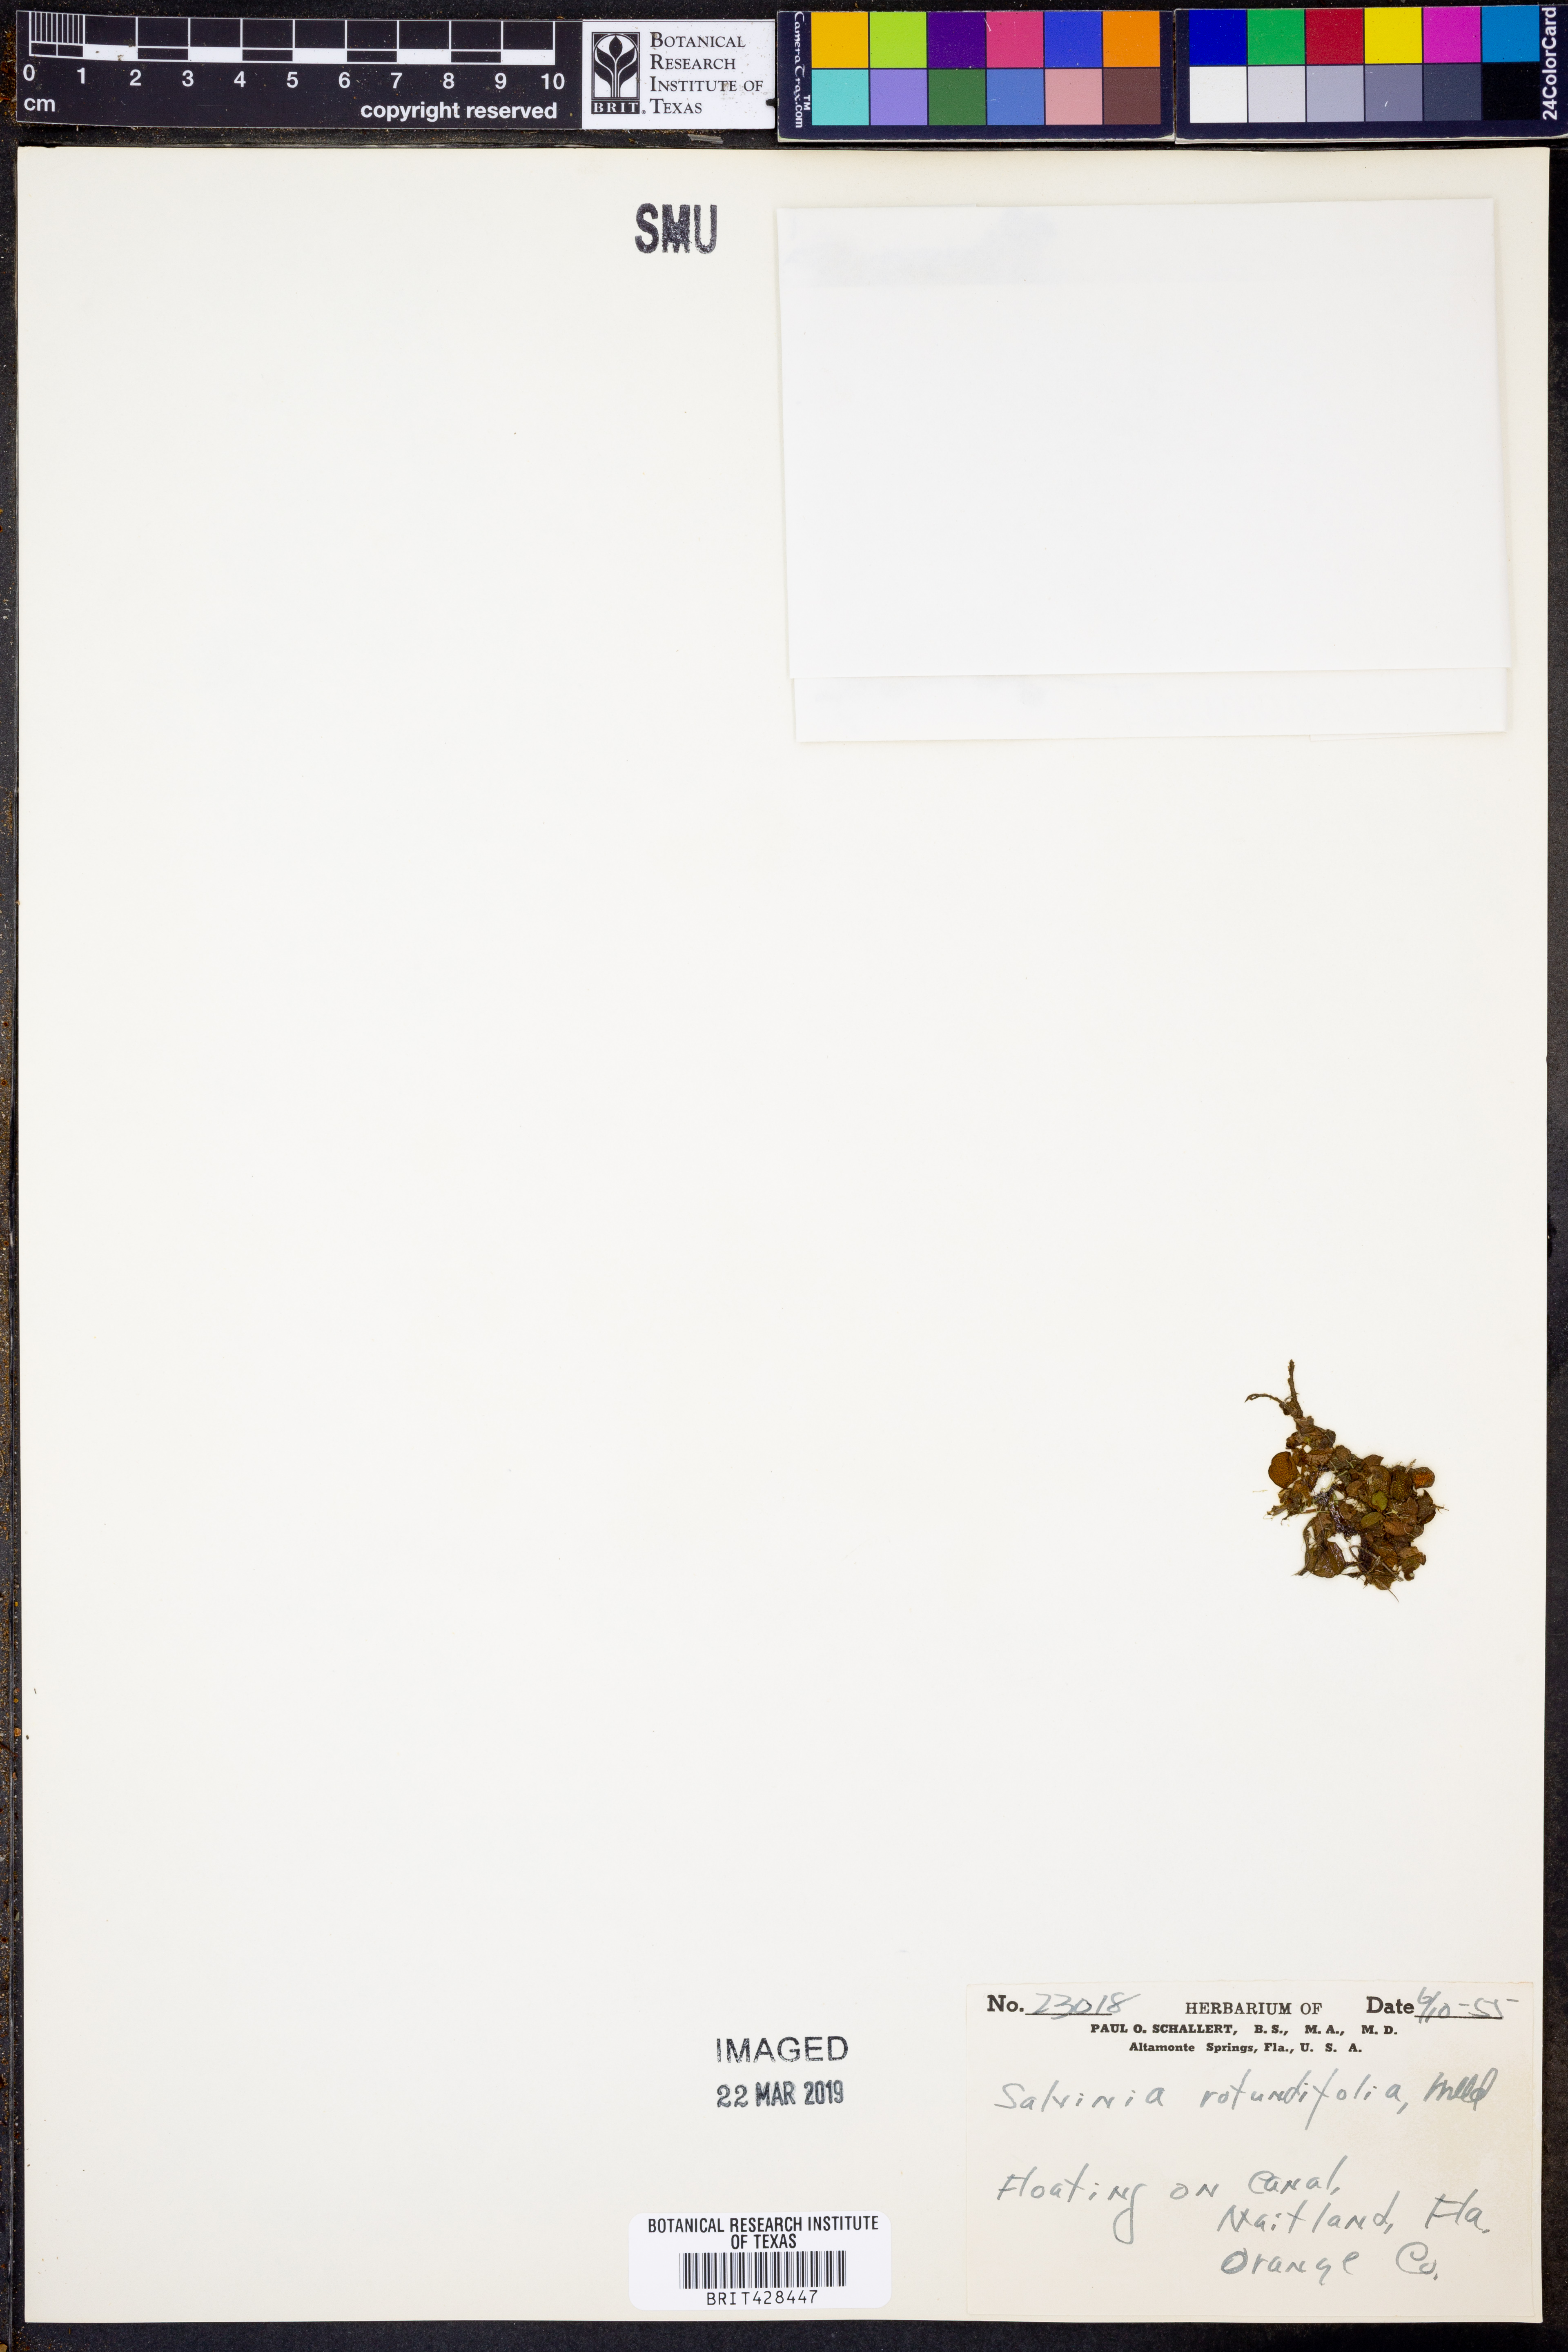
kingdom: Plantae
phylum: Tracheophyta
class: Polypodiopsida
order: Salviniales
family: Salviniaceae
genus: Salvinia
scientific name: Salvinia auriculata
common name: African payal
